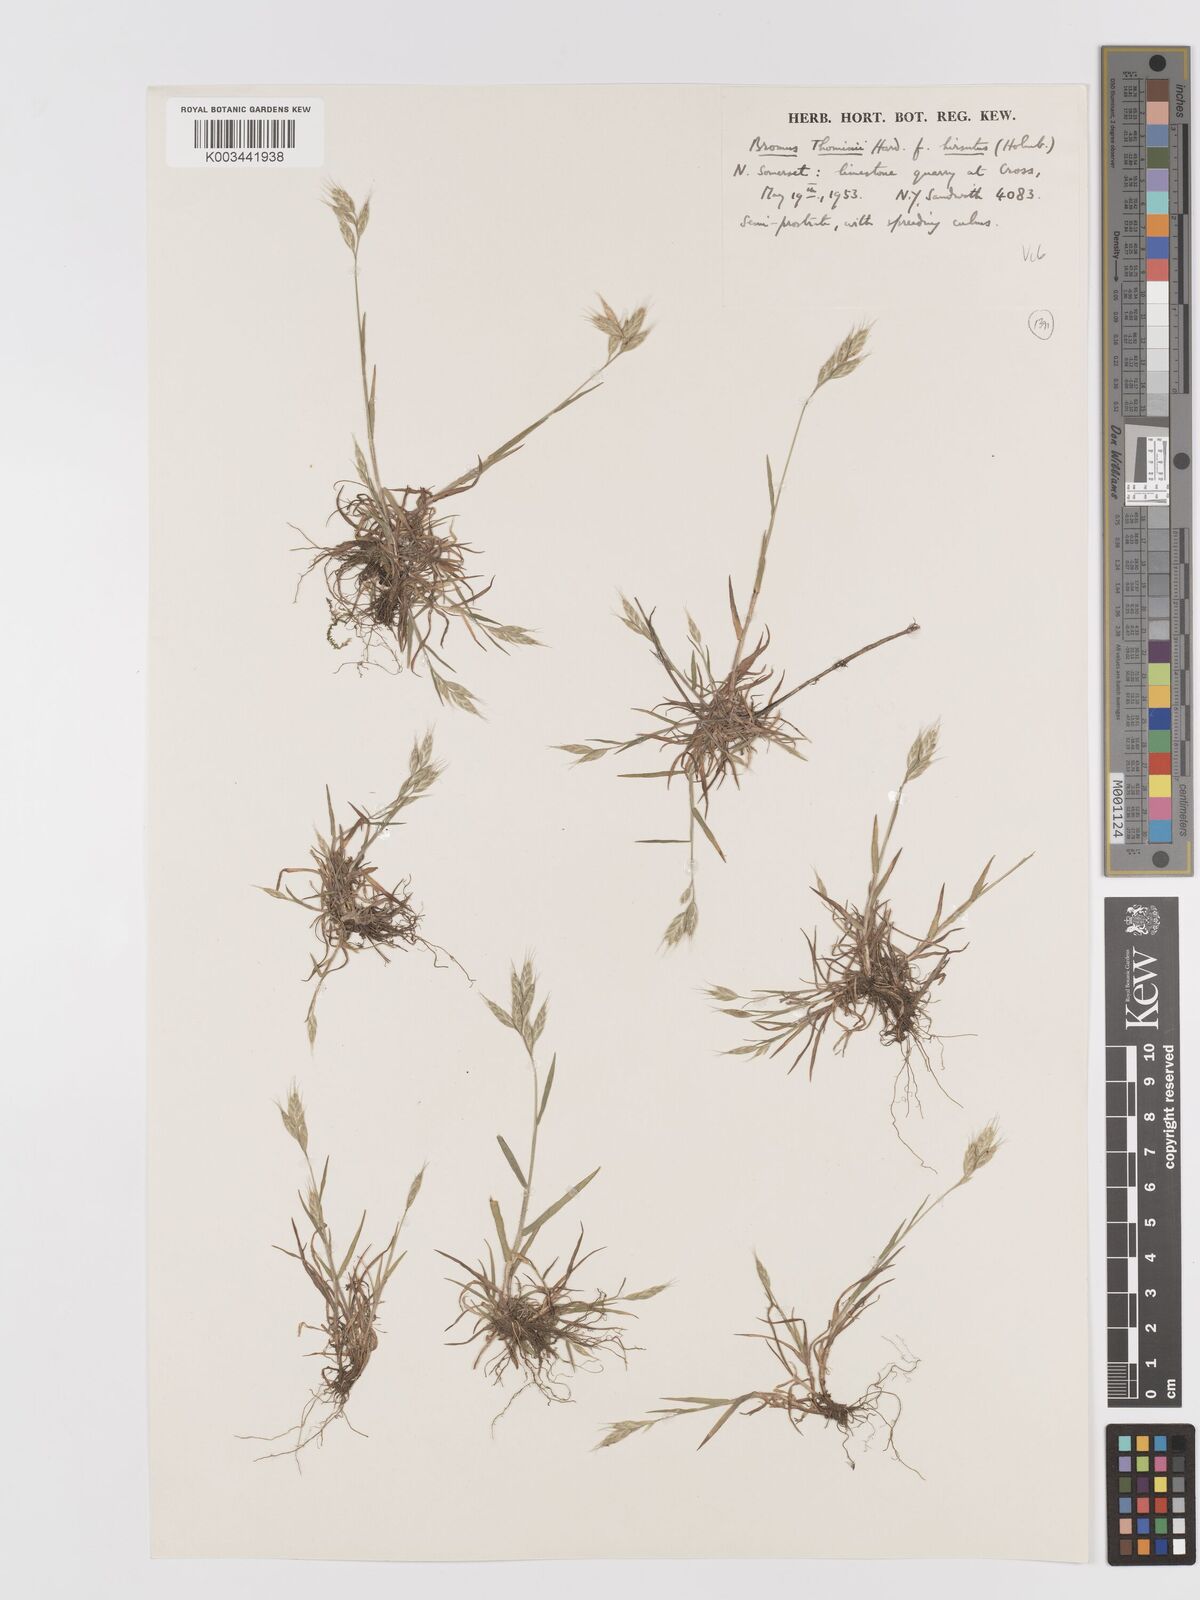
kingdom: Plantae
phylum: Tracheophyta
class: Liliopsida
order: Poales
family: Poaceae
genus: Bromus
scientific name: Bromus hordeaceus
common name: Soft brome
